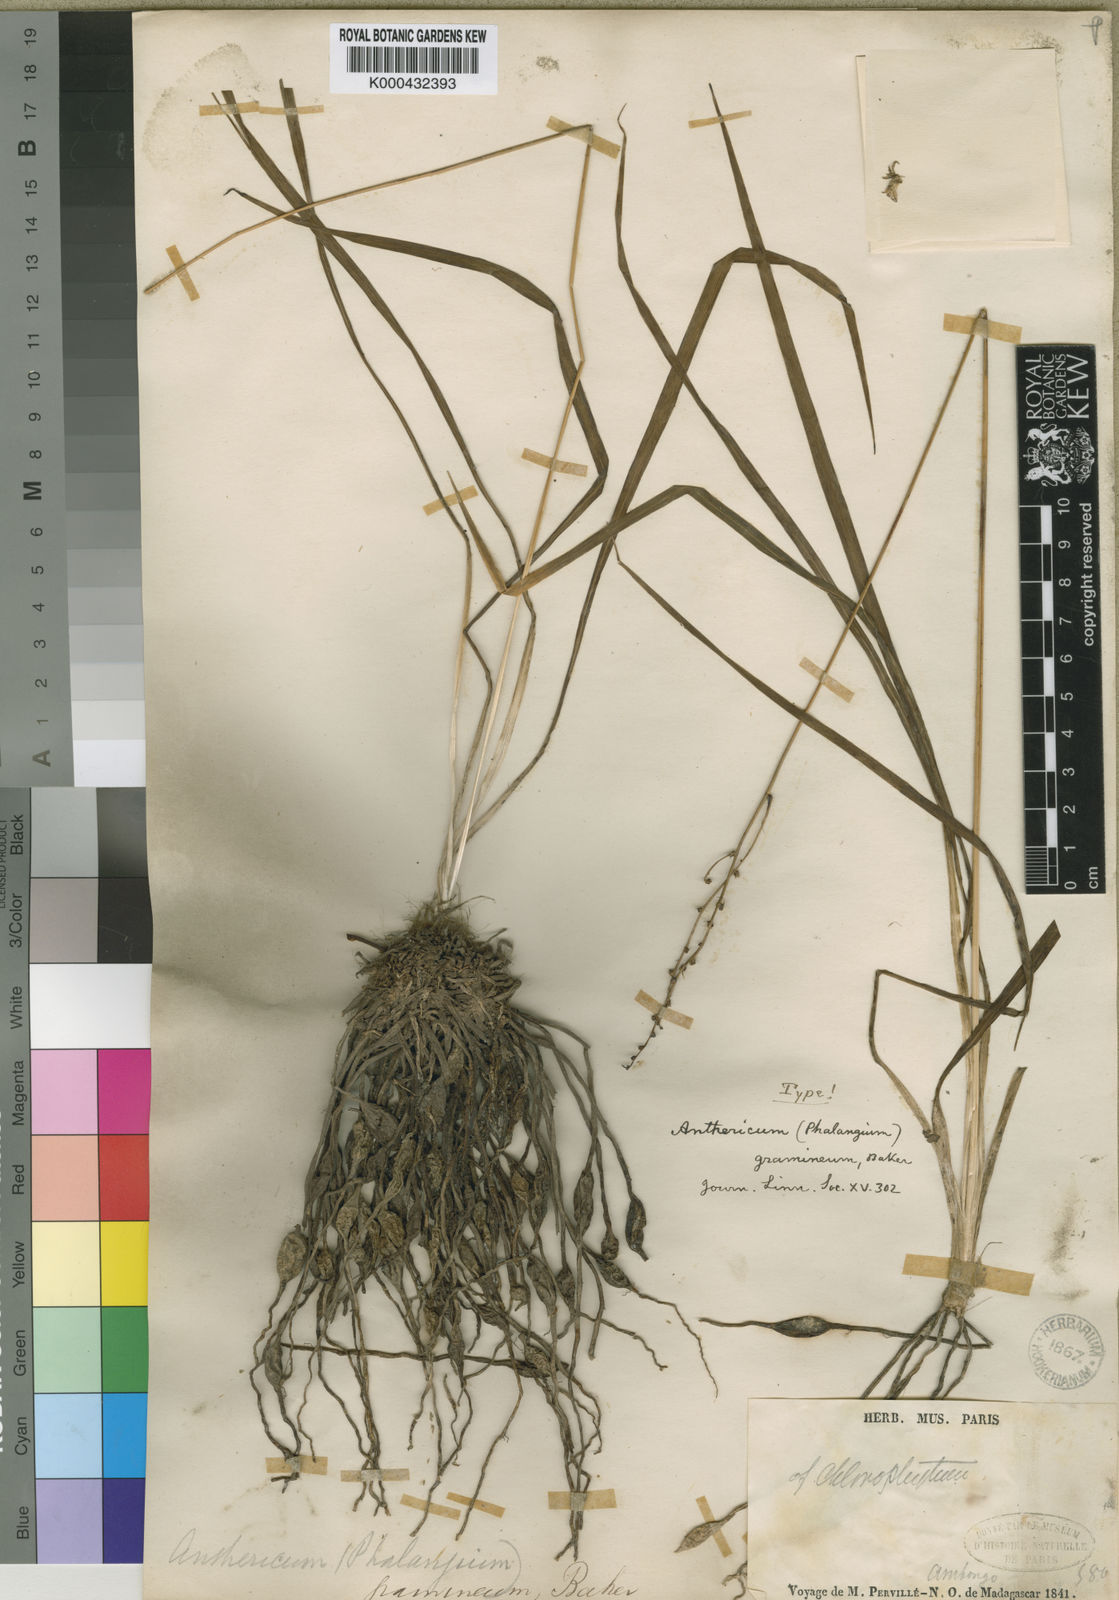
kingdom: Plantae
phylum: Tracheophyta
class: Liliopsida
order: Asparagales
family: Asparagaceae
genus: Chlorophytum
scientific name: Chlorophytum madagascariense
